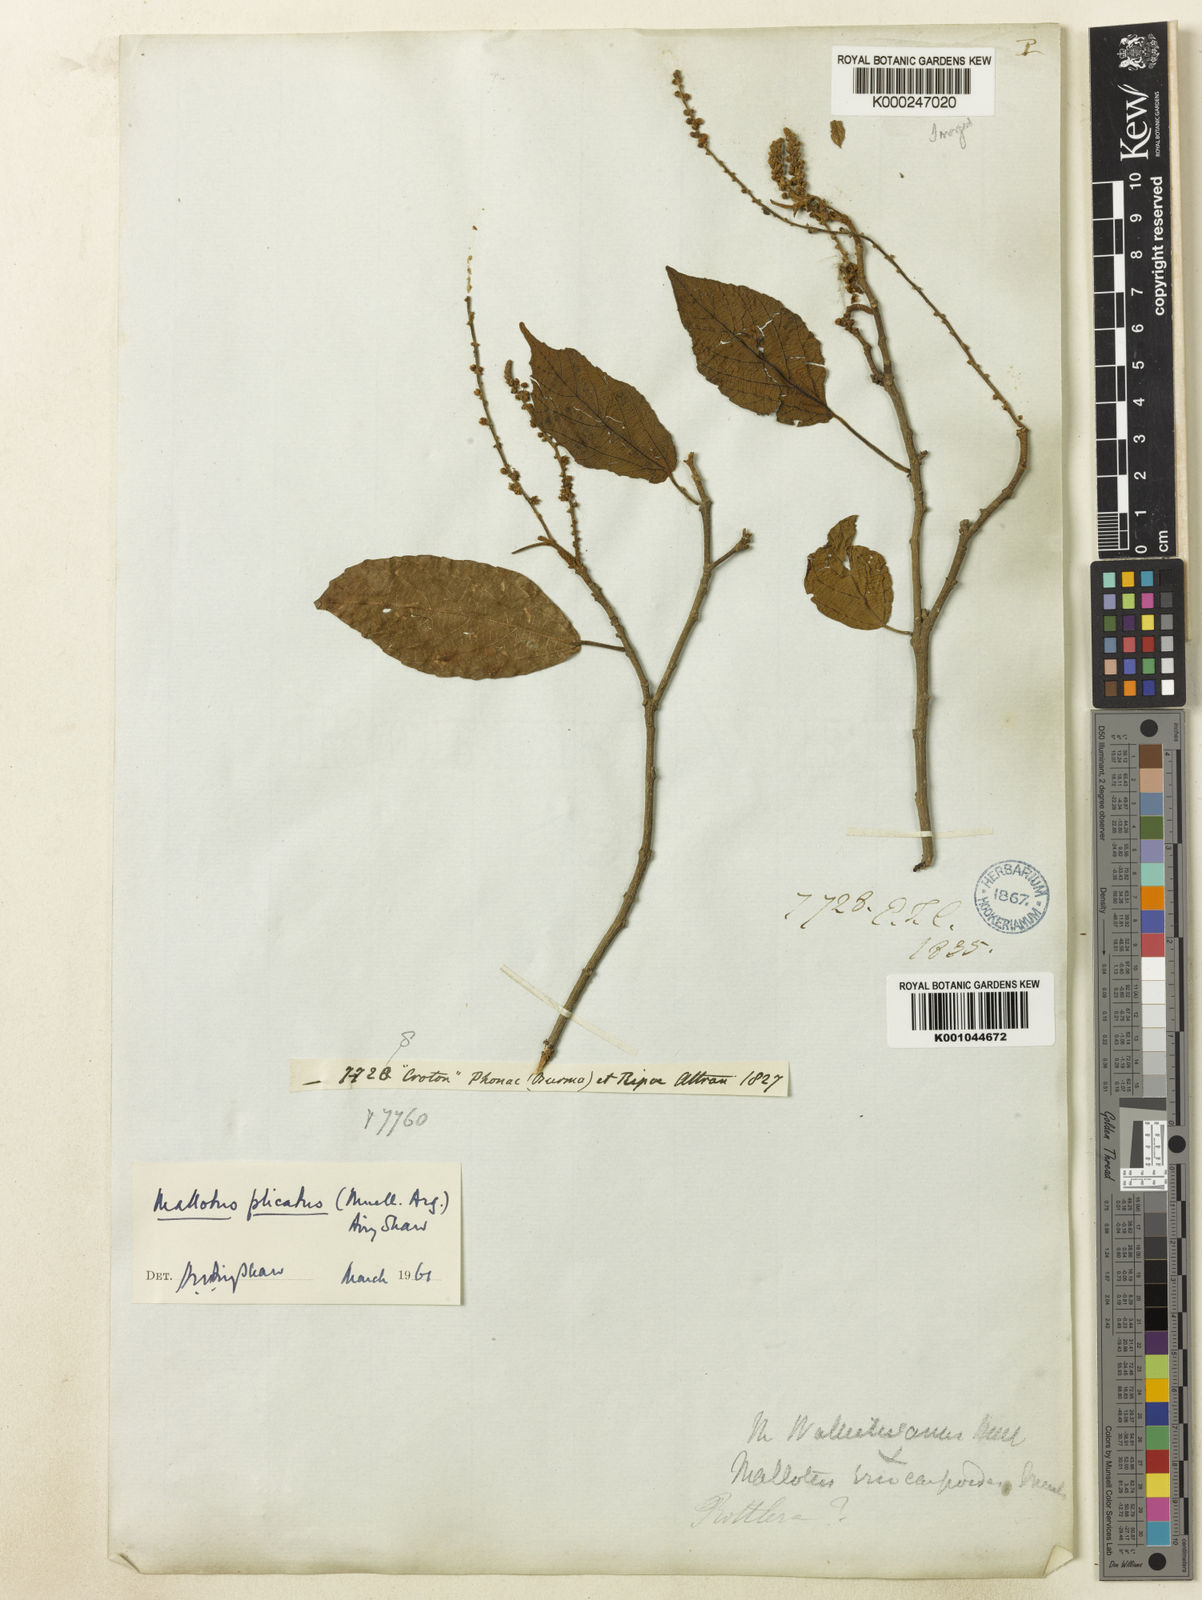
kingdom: Plantae
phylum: Tracheophyta
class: Magnoliopsida
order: Malpighiales
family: Euphorbiaceae
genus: Mallotus
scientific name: Mallotus
